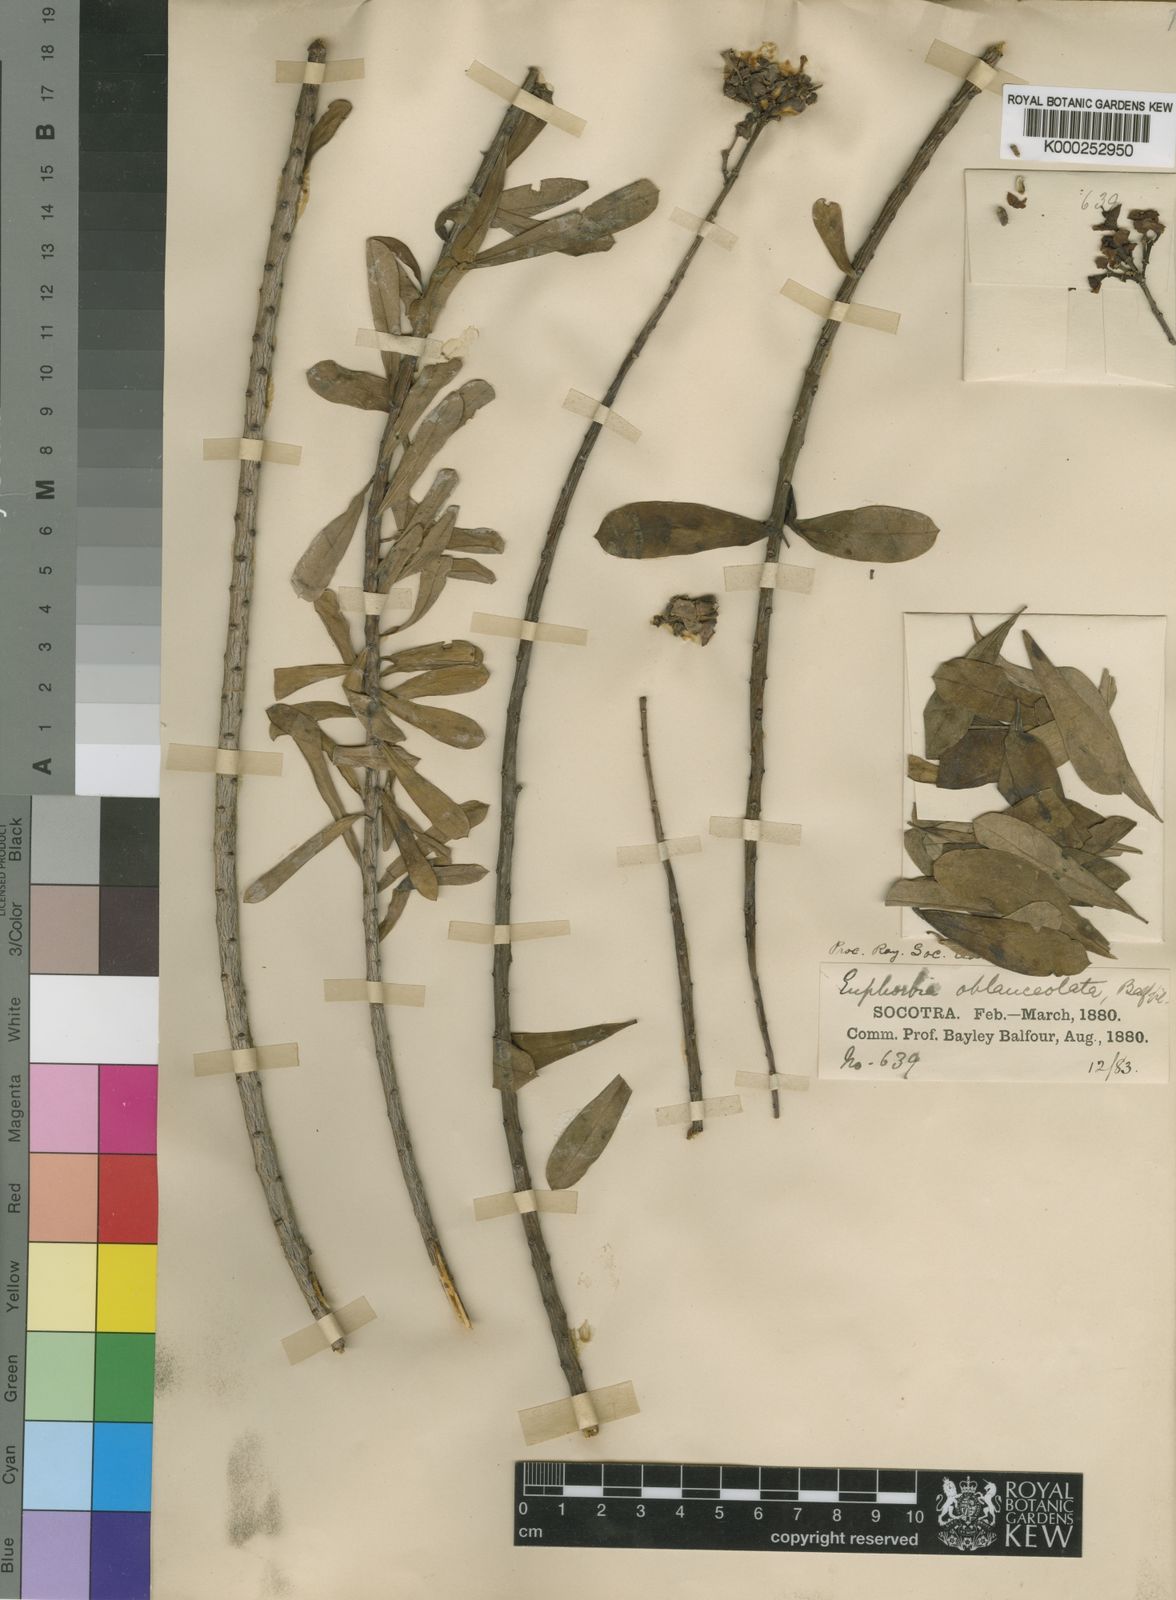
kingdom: Plantae
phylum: Tracheophyta
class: Magnoliopsida
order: Malpighiales
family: Euphorbiaceae
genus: Euphorbia
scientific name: Euphorbia schimperi
